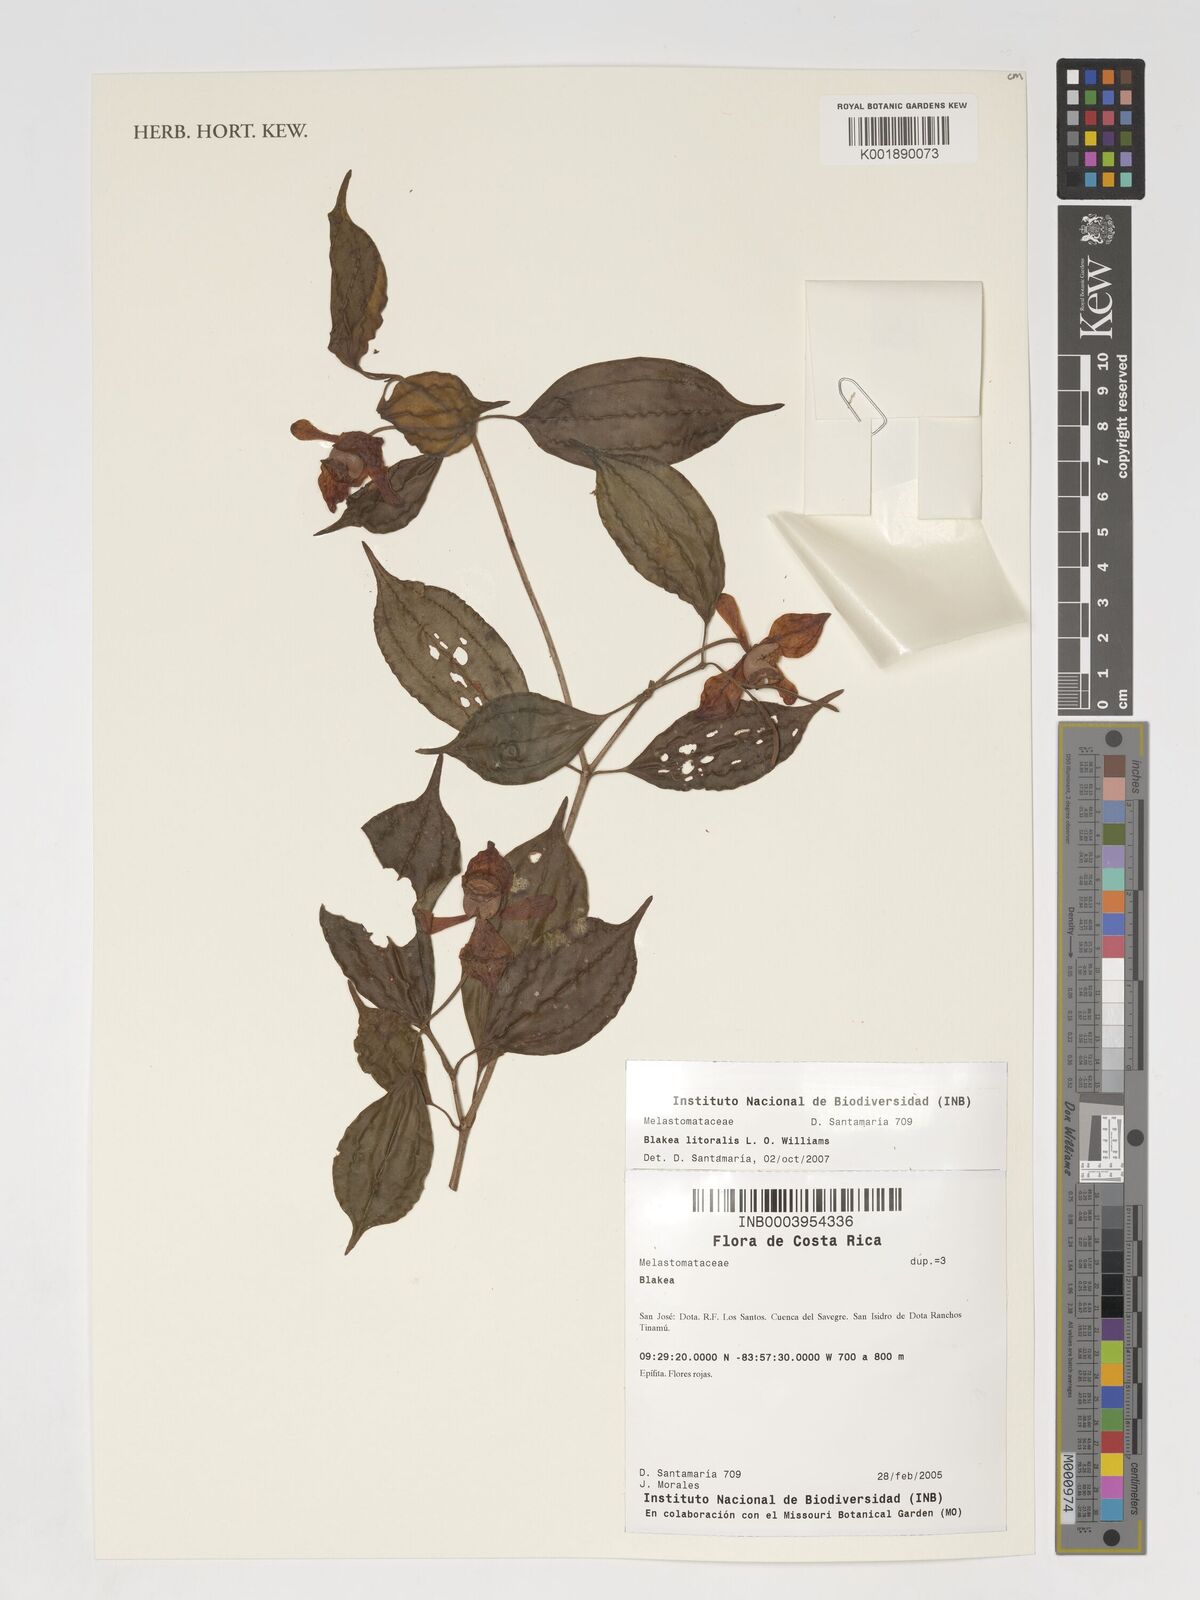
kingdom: Plantae
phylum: Tracheophyta
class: Magnoliopsida
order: Myrtales
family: Melastomataceae
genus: Blakea
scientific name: Blakea litoralis
